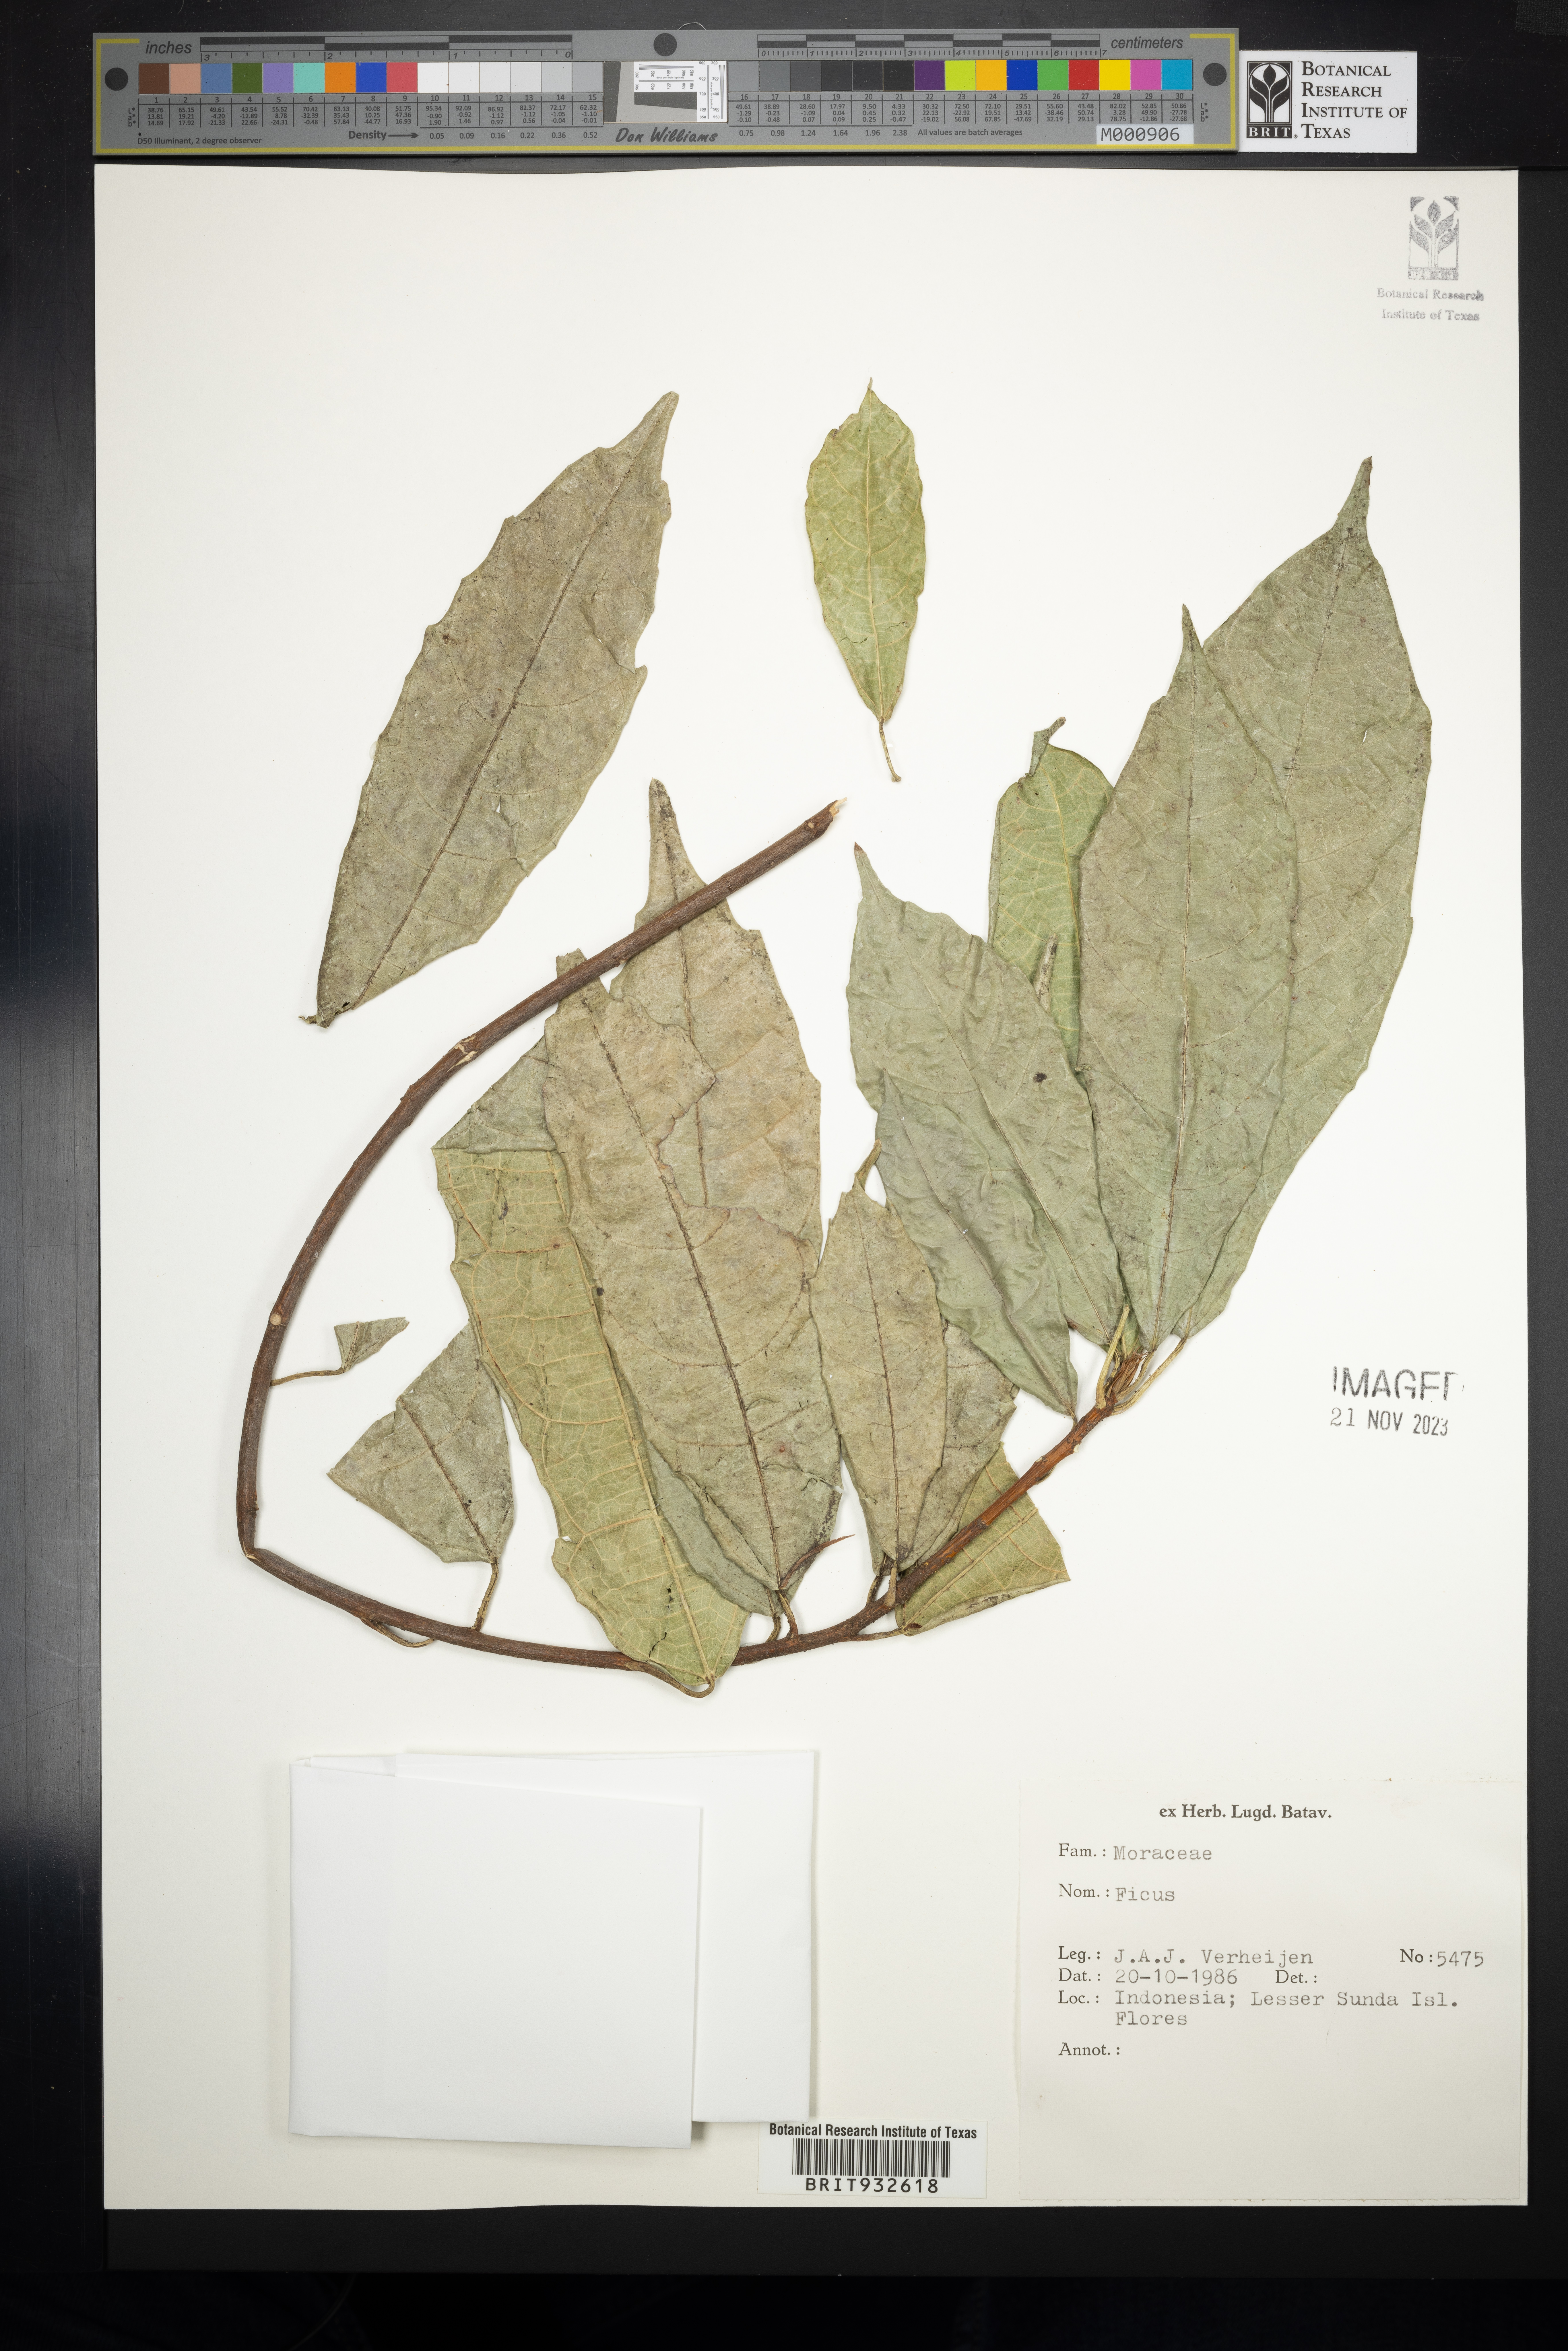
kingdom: Plantae
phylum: Tracheophyta
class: Magnoliopsida
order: Rosales
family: Moraceae
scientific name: Moraceae
